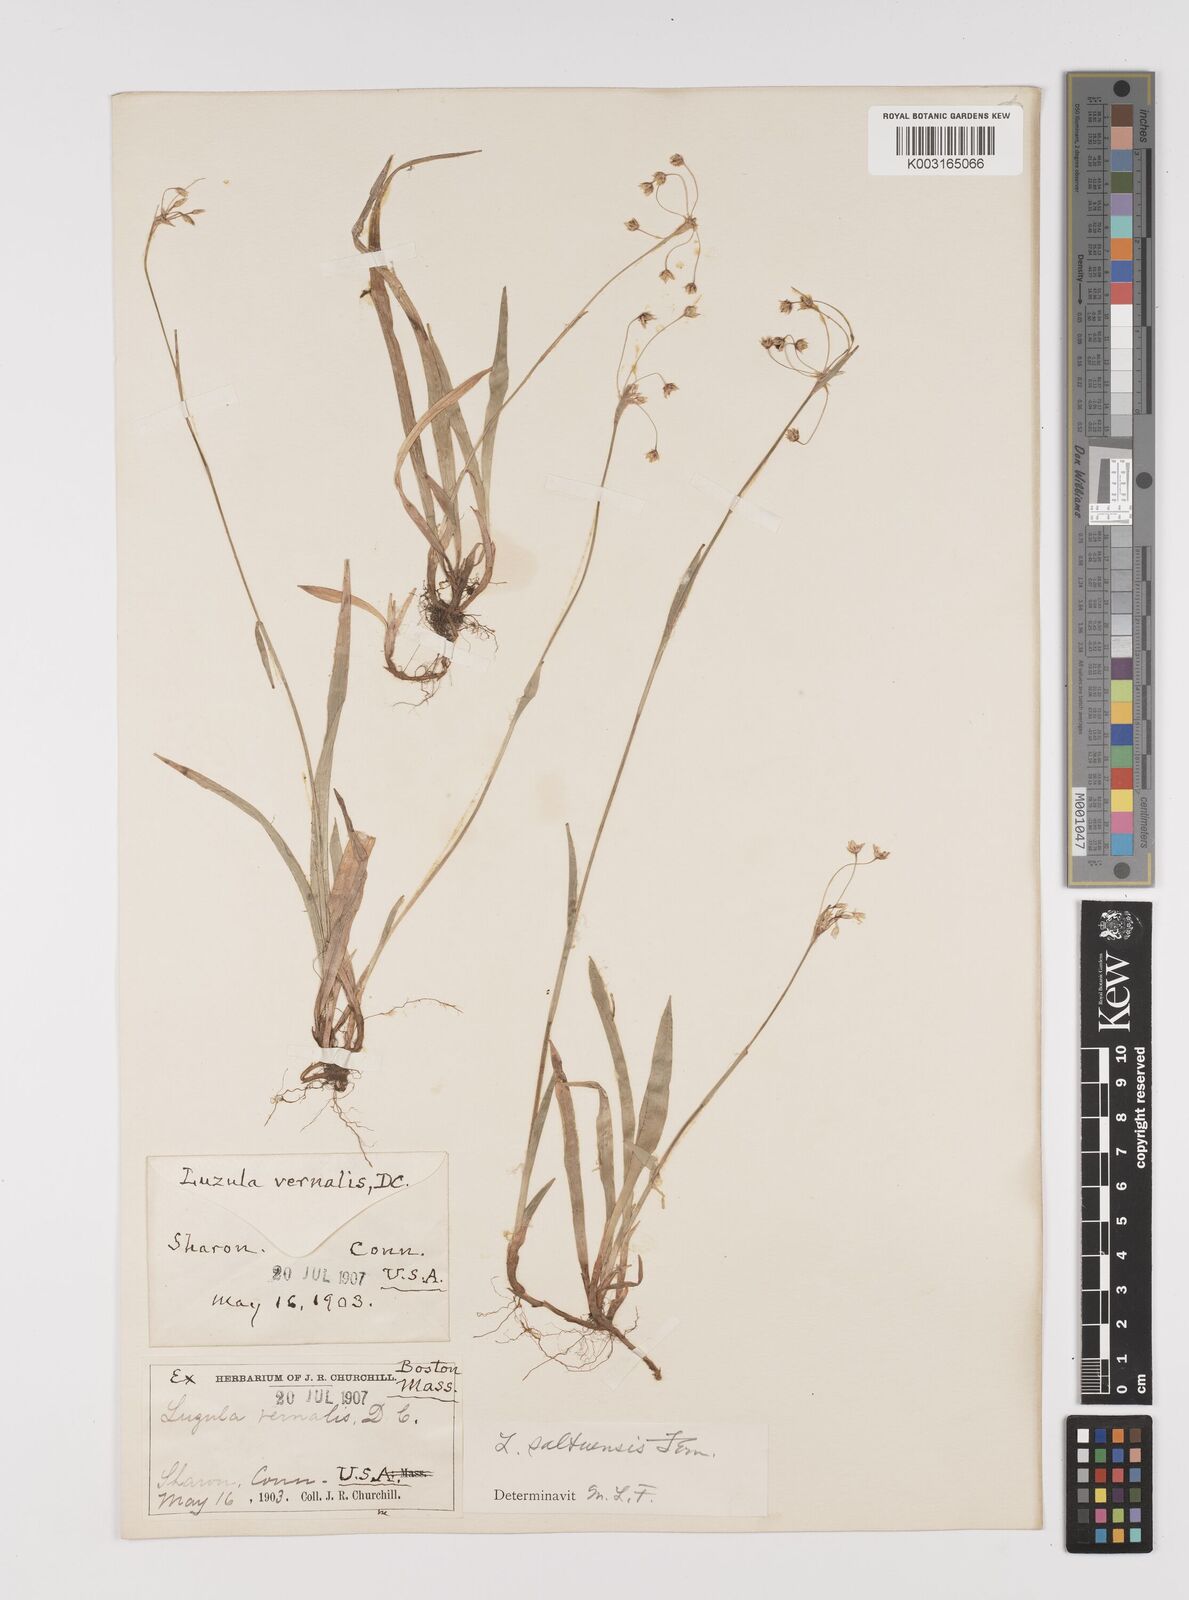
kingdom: Plantae
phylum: Tracheophyta
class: Liliopsida
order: Poales
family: Juncaceae
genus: Luzula
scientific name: Luzula acuminata
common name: Hairy woodrush
